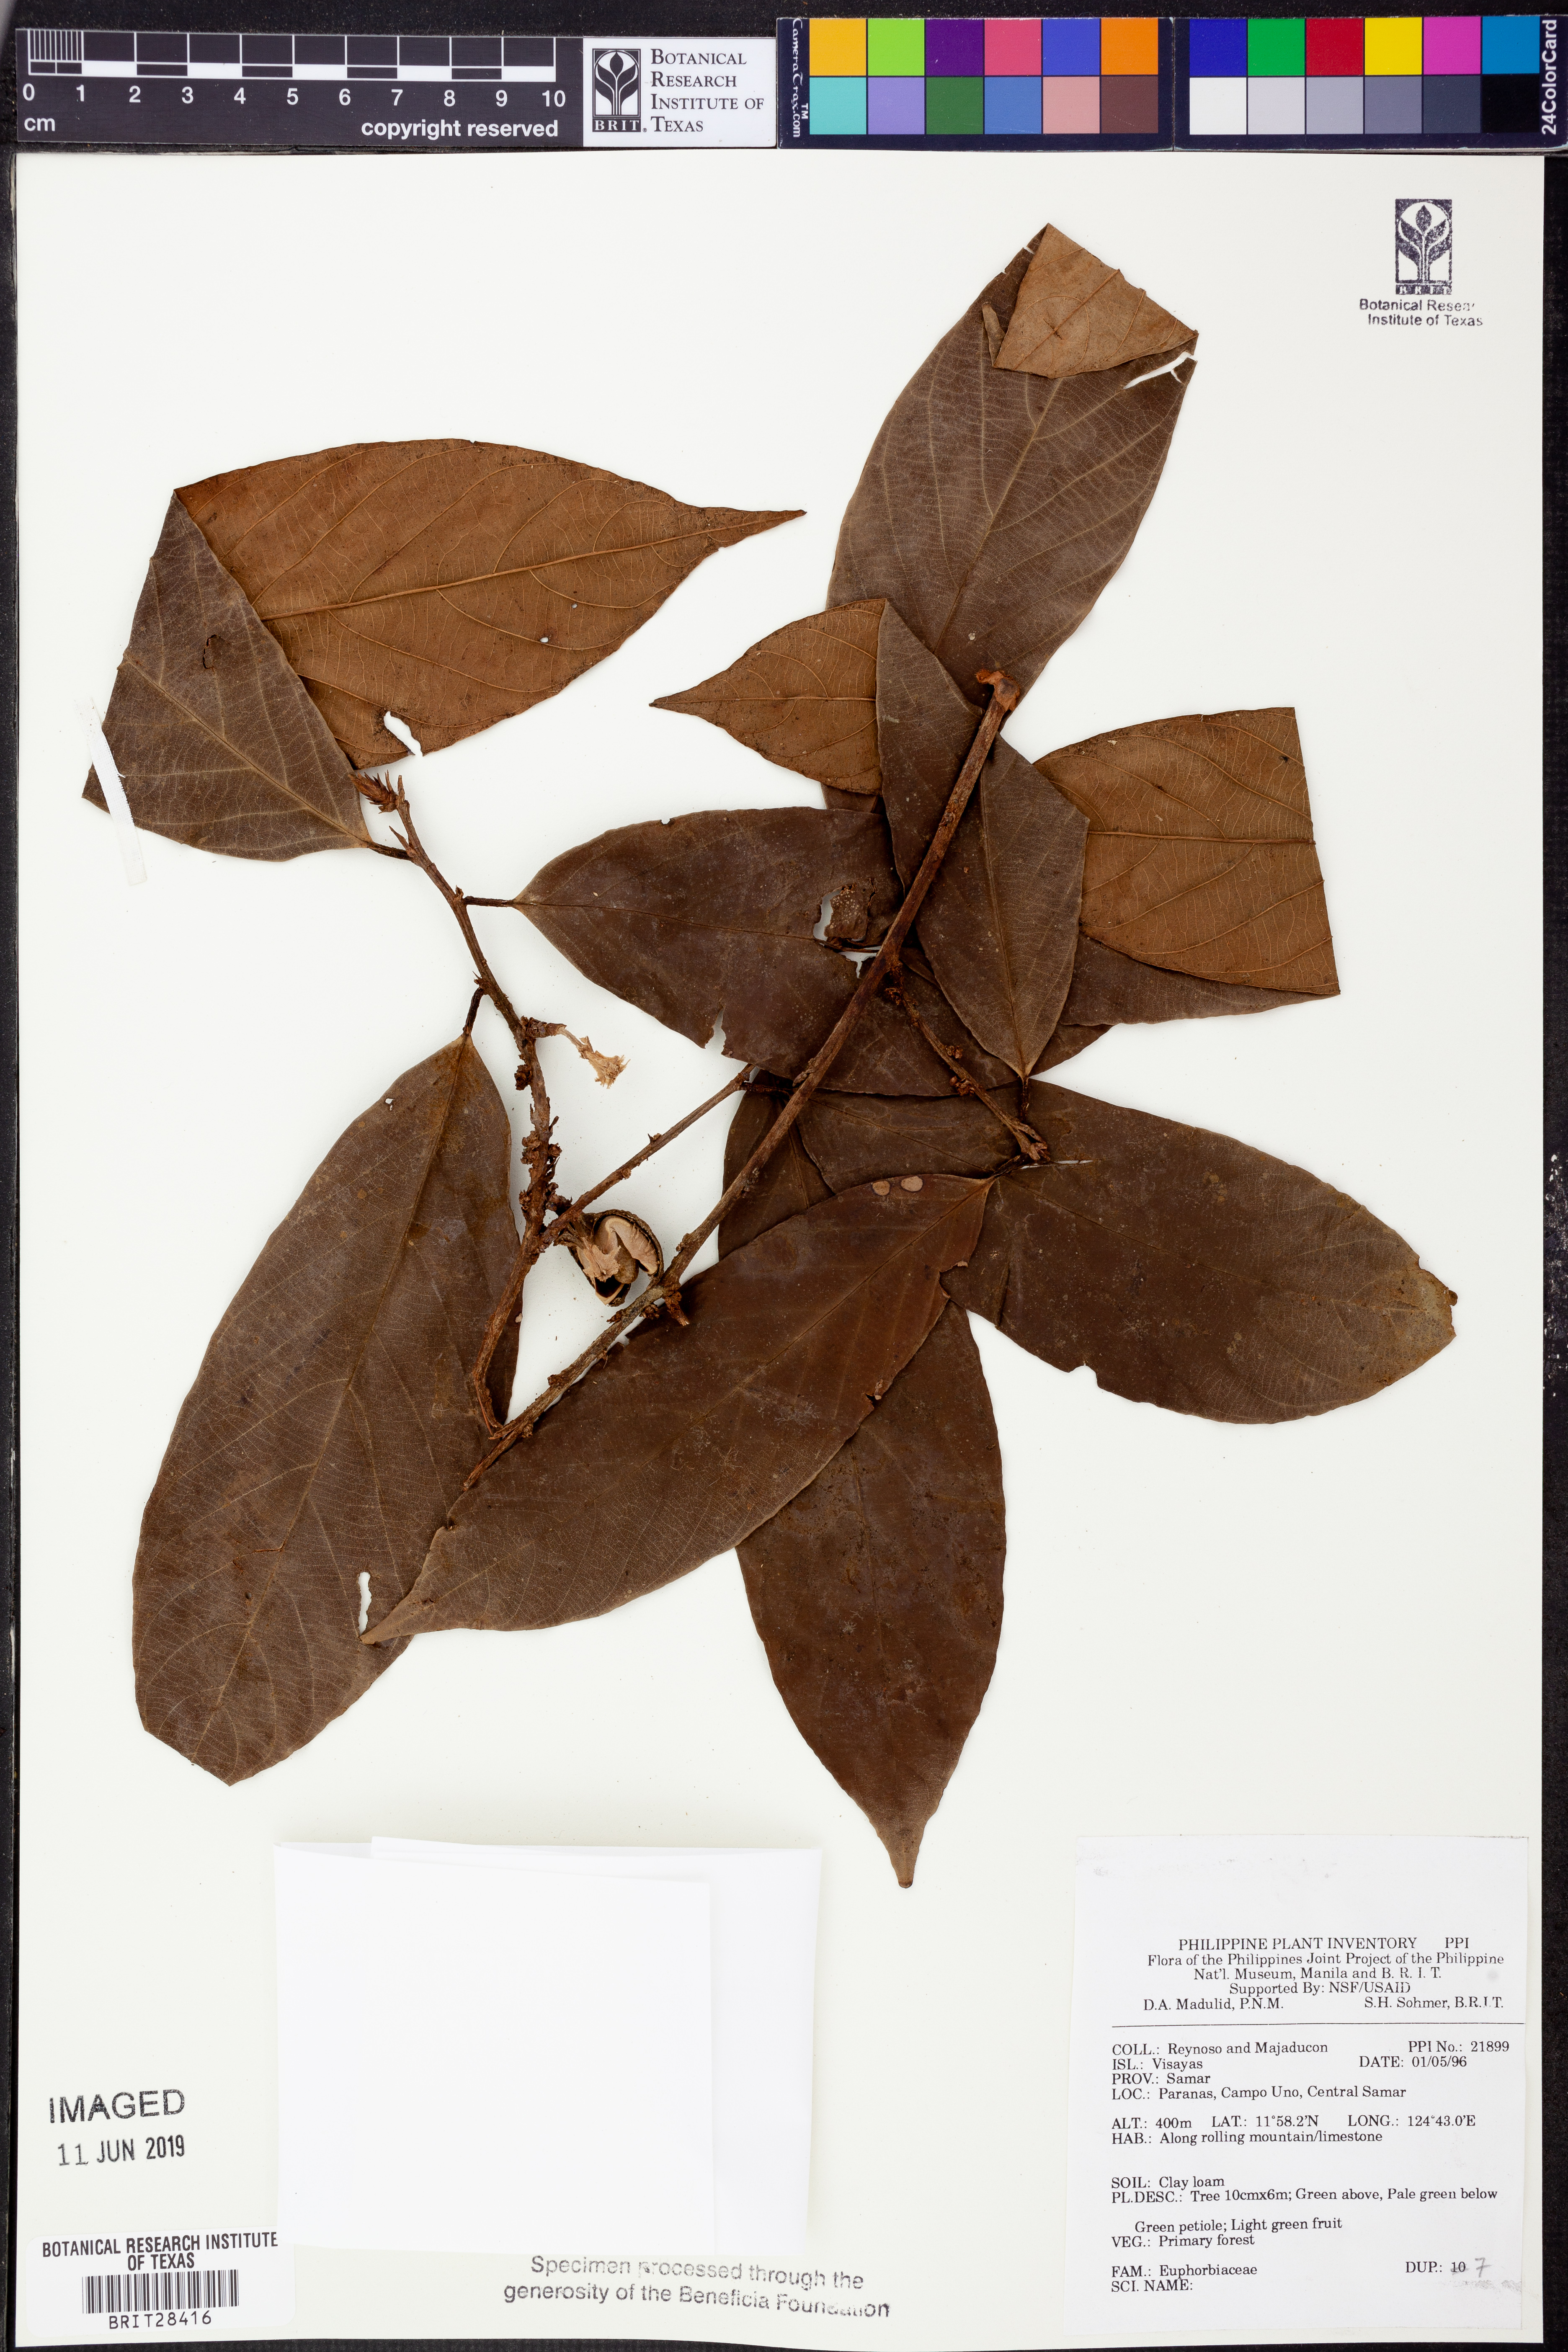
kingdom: Plantae
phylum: Tracheophyta
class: Magnoliopsida
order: Malpighiales
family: Euphorbiaceae
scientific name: Euphorbiaceae
